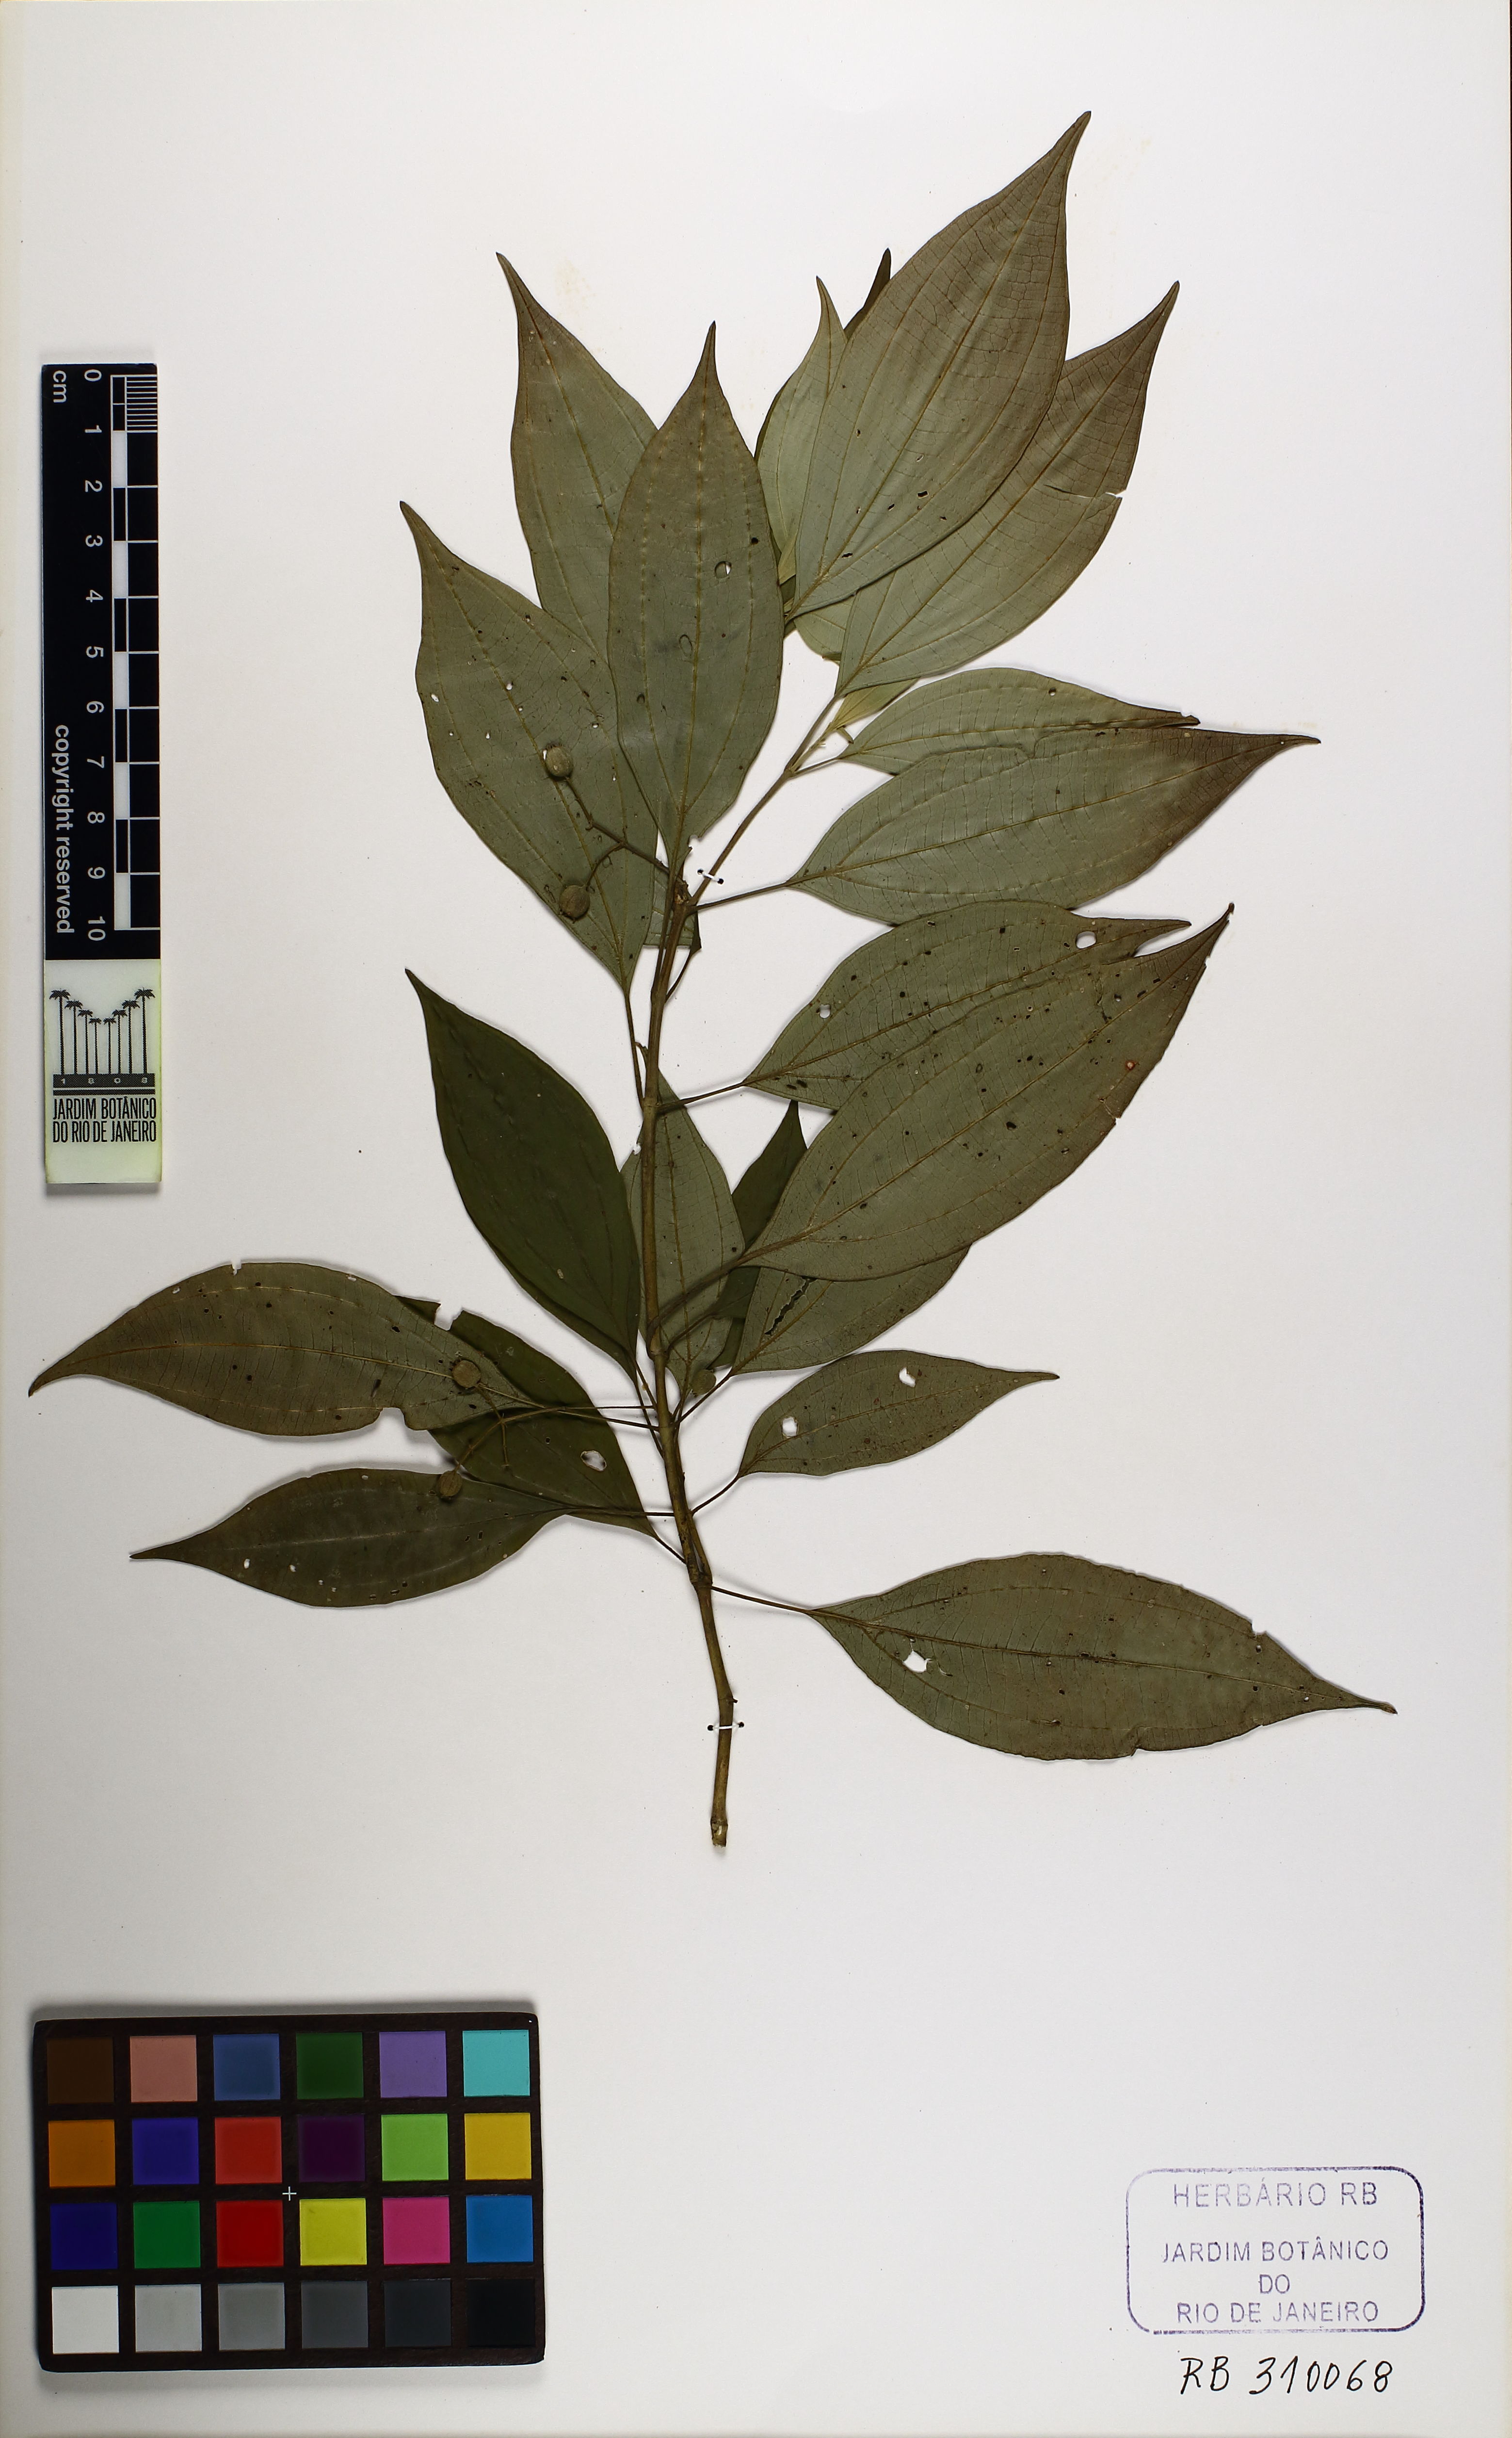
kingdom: Plantae
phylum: Tracheophyta
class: Magnoliopsida
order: Myrtales
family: Melastomataceae
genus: Miconia
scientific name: Miconia acutiflora
